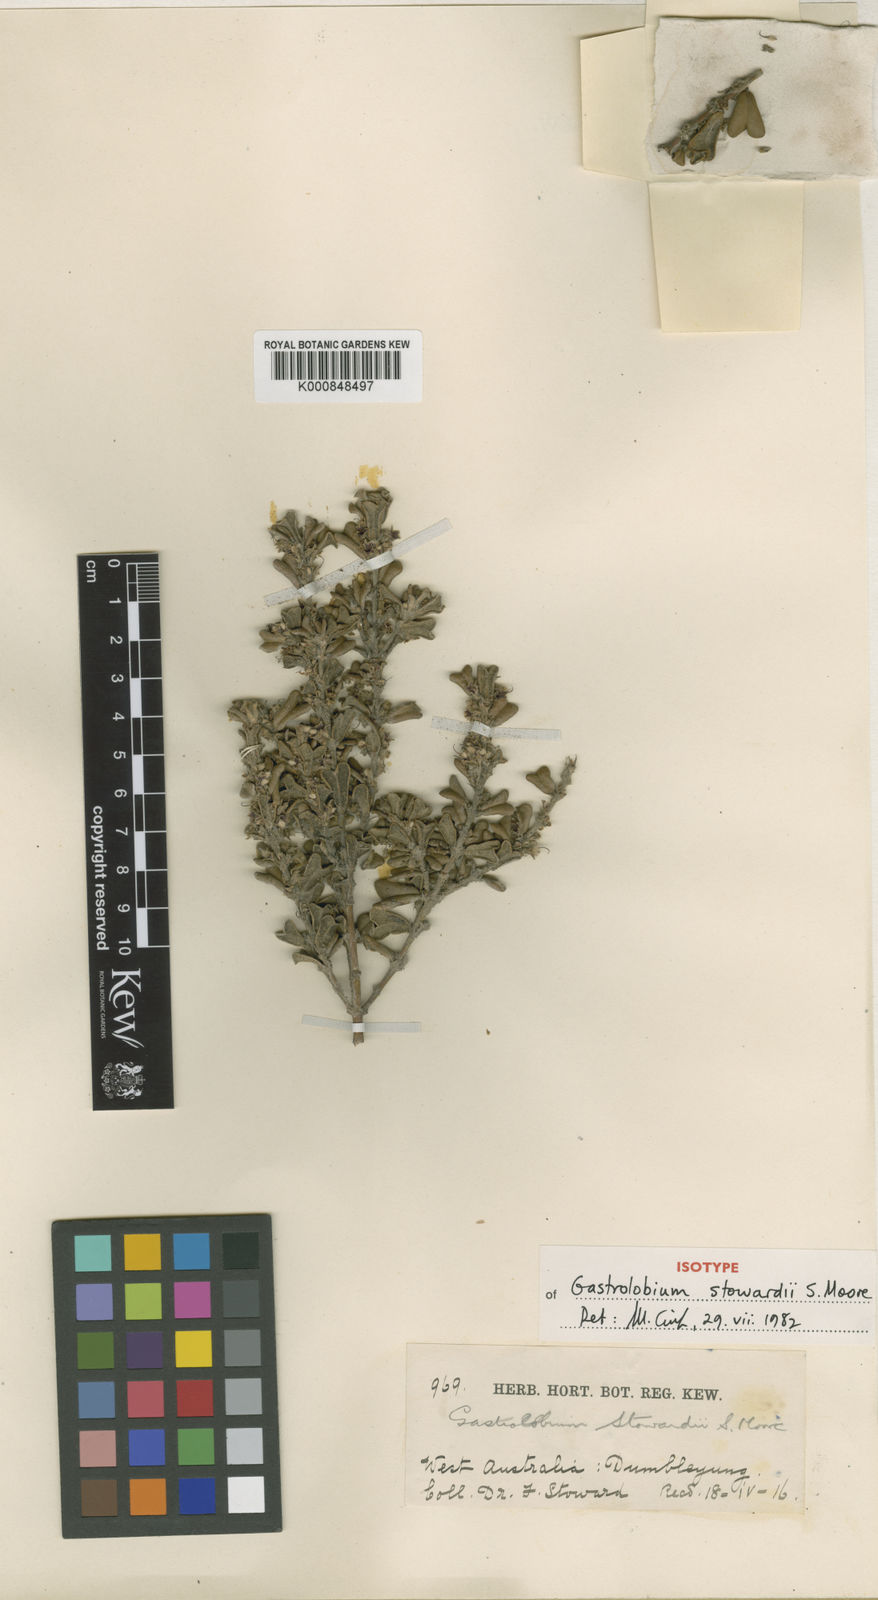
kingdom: Plantae
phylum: Tracheophyta
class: Magnoliopsida
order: Fabales
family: Fabaceae
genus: Gastrolobium
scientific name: Gastrolobium stowardii
